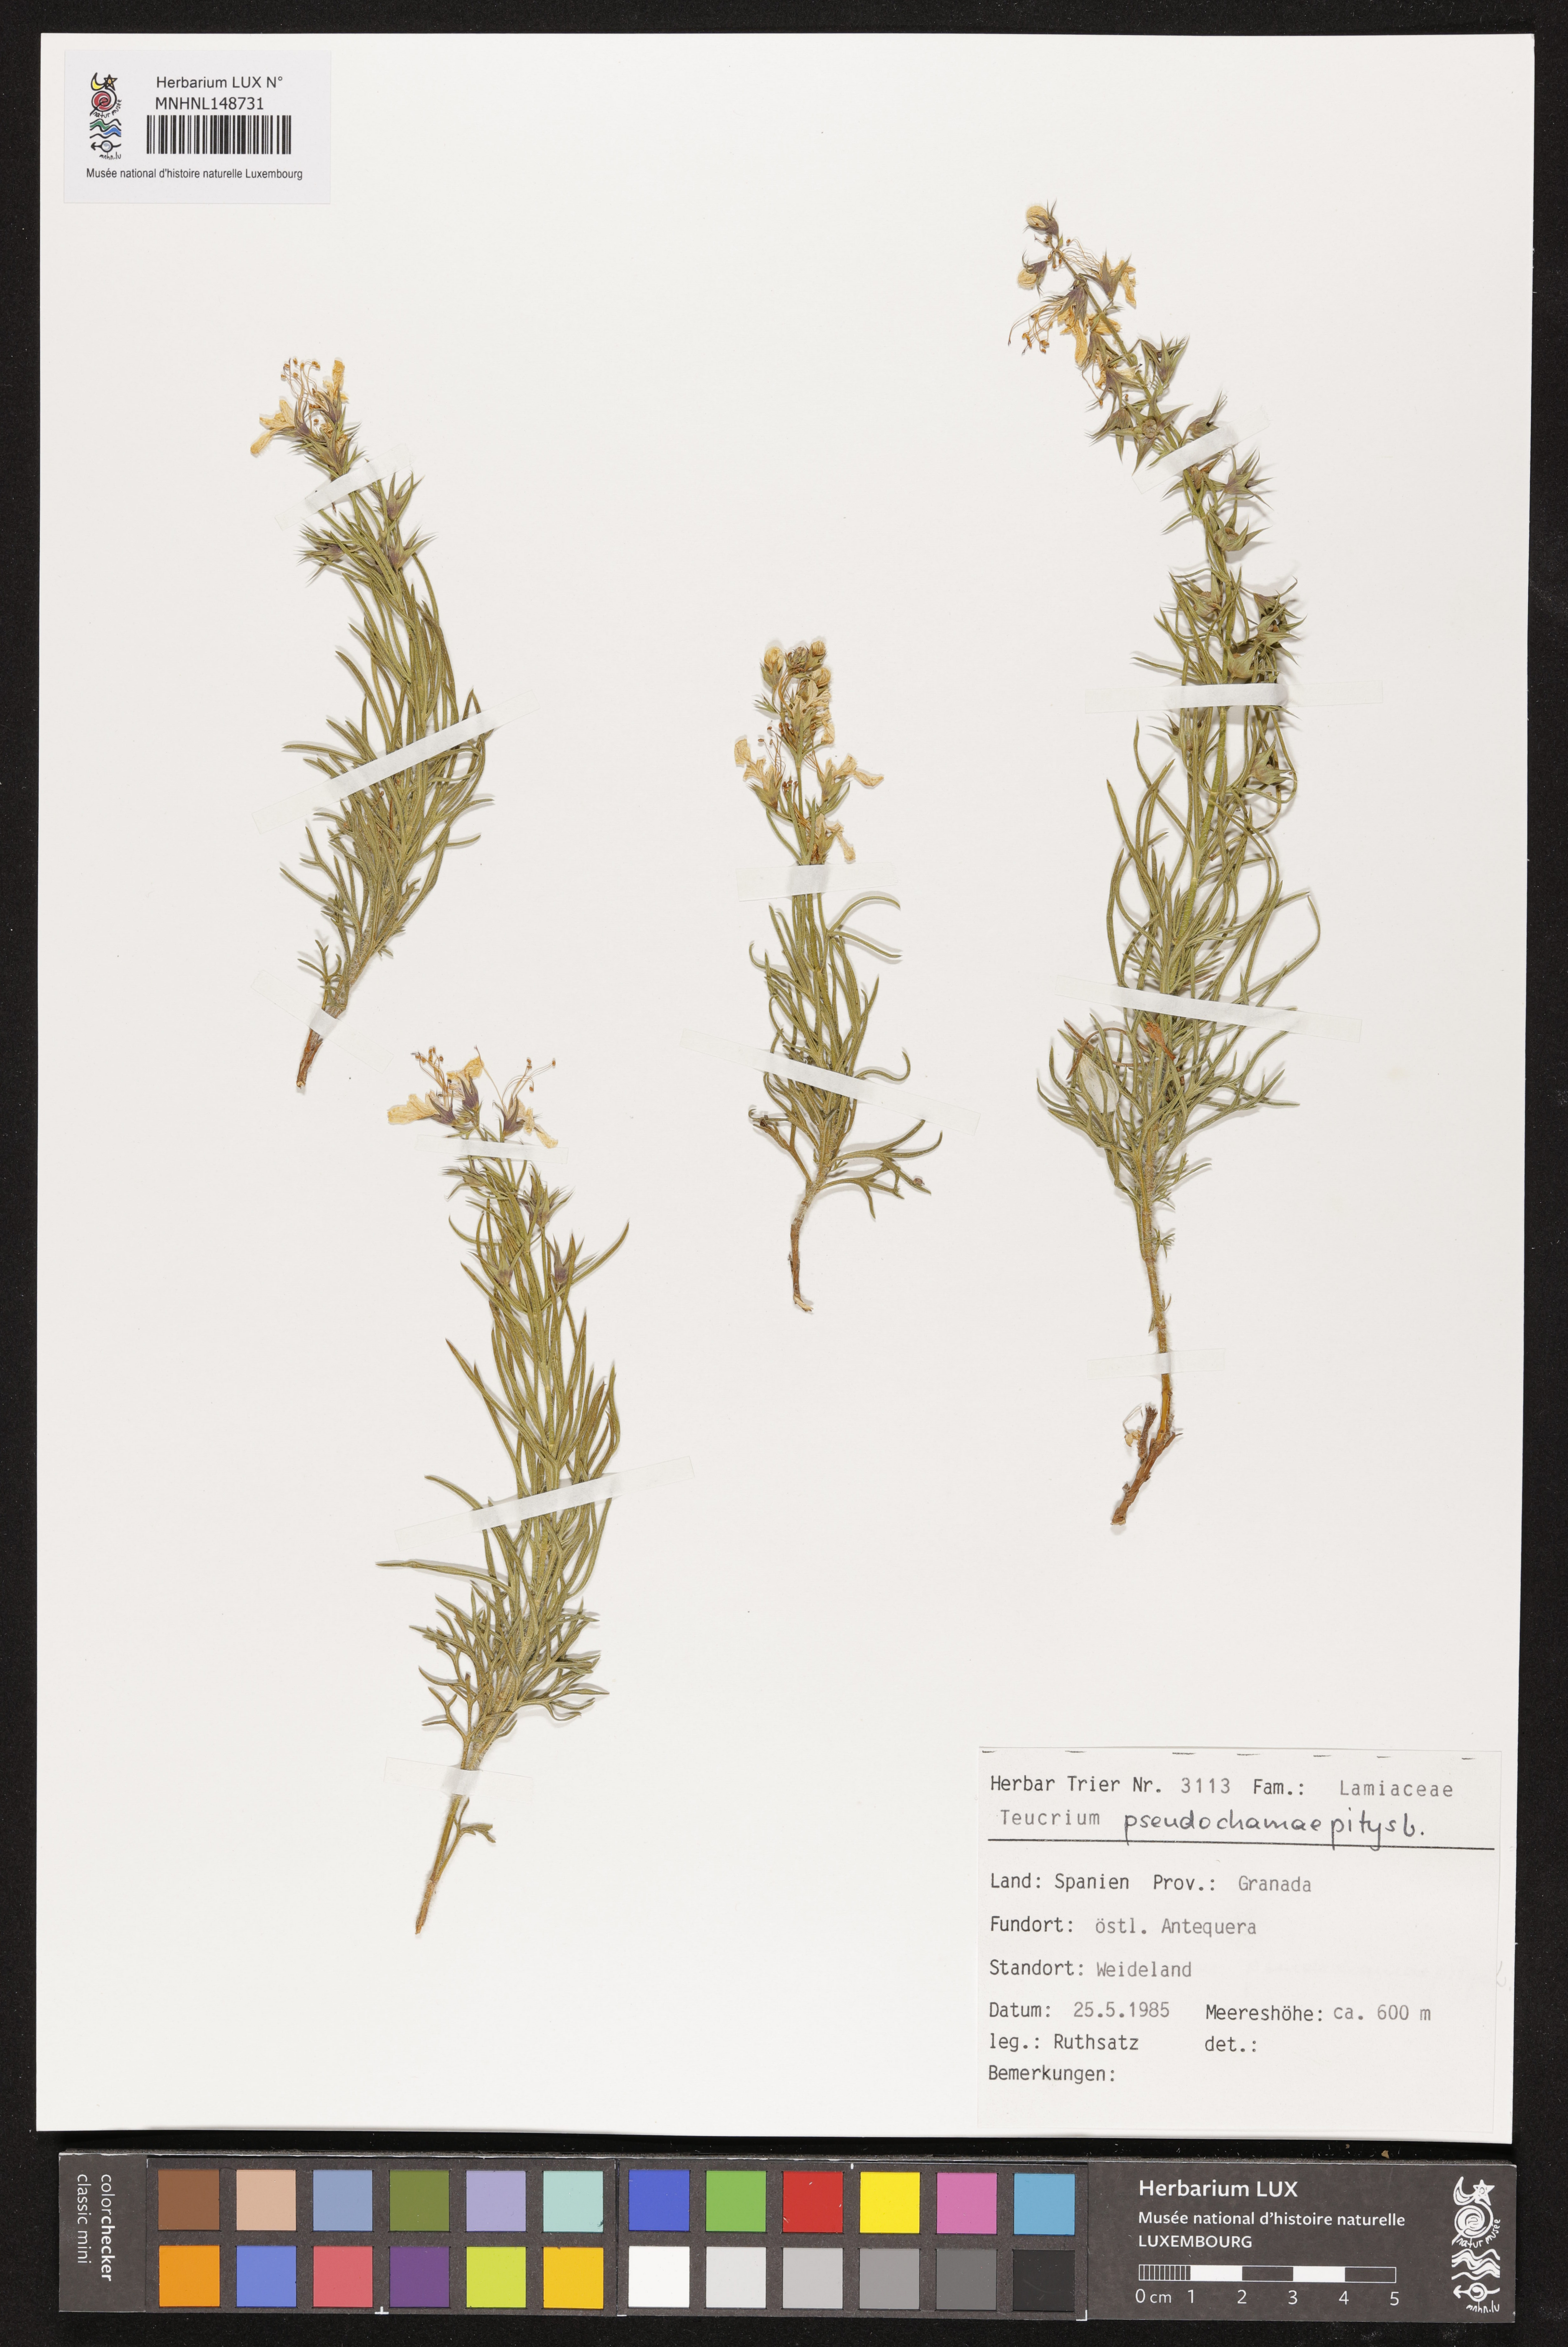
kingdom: Plantae
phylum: Tracheophyta
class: Magnoliopsida
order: Lamiales
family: Lamiaceae
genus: Teucrium
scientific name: Teucrium pseudochamaepitys
